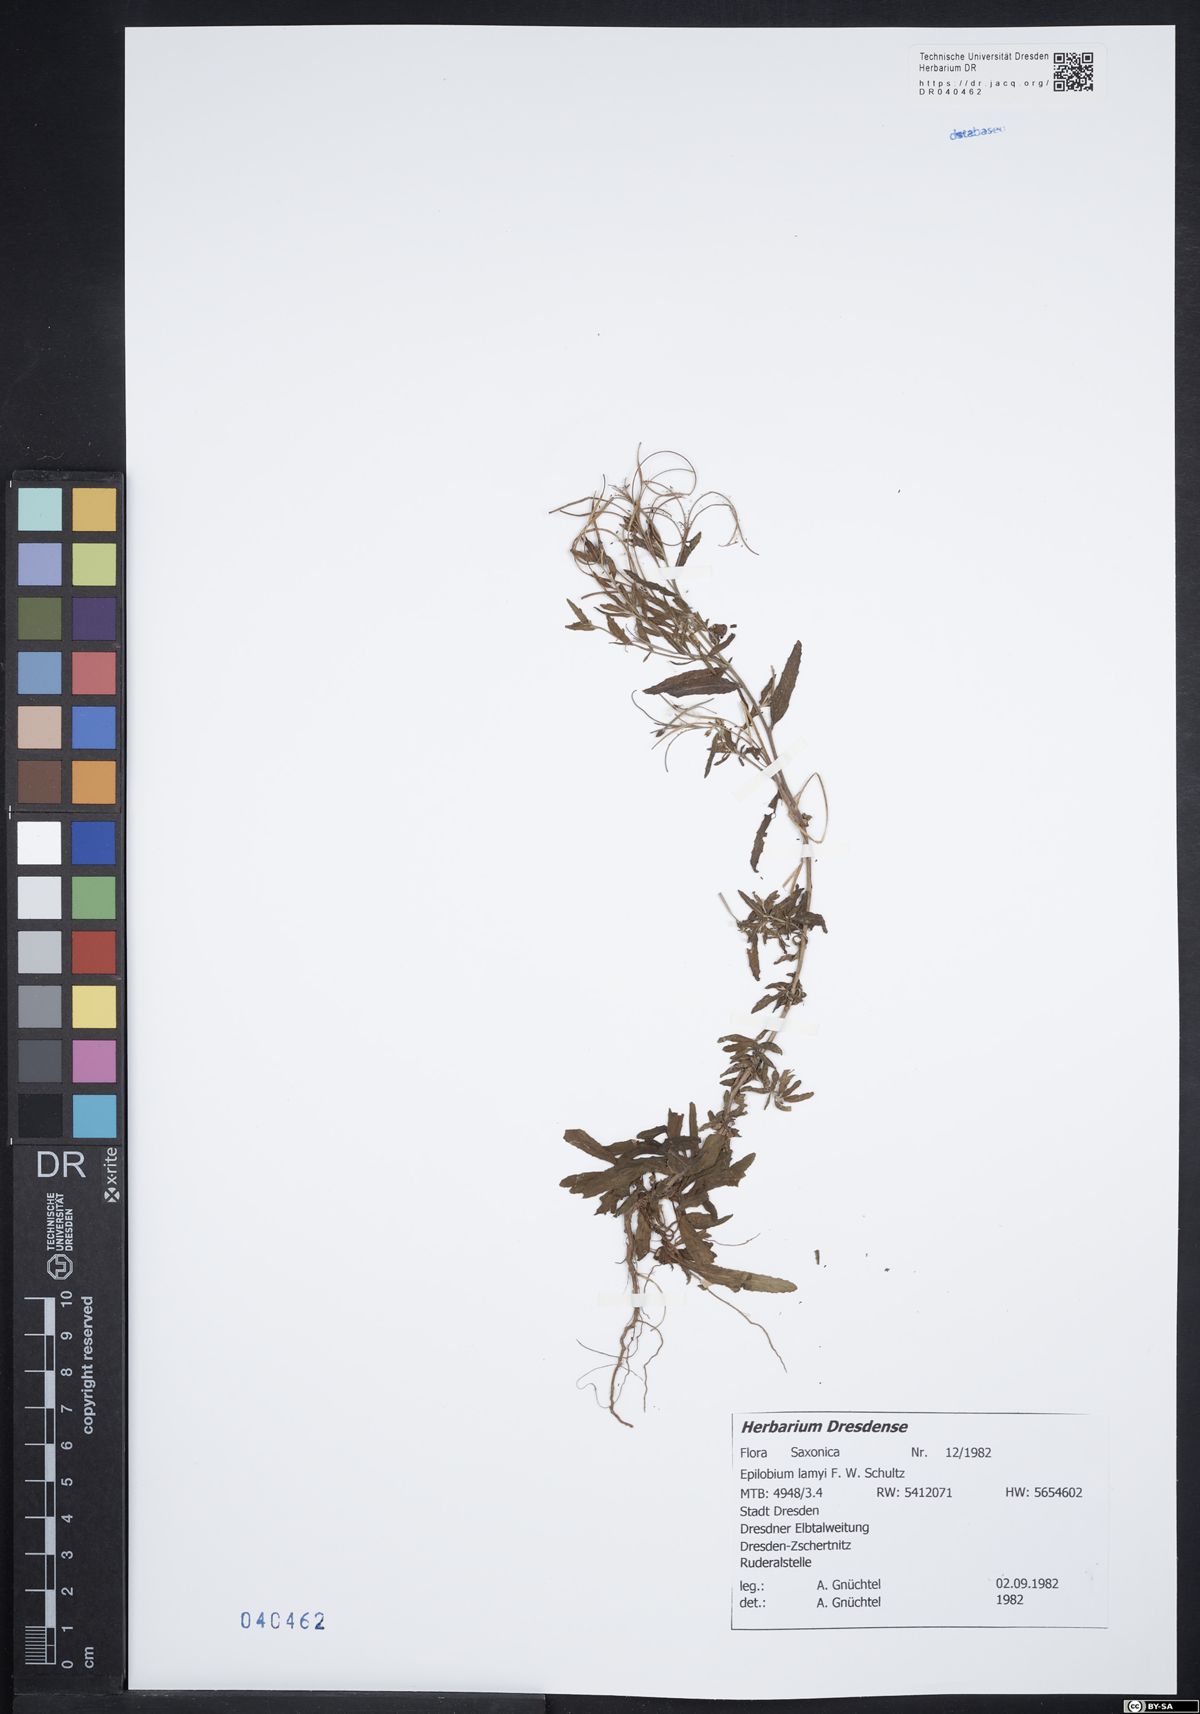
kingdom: Plantae
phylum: Tracheophyta
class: Magnoliopsida
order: Myrtales
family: Onagraceae
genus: Epilobium
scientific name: Epilobium lamyi
